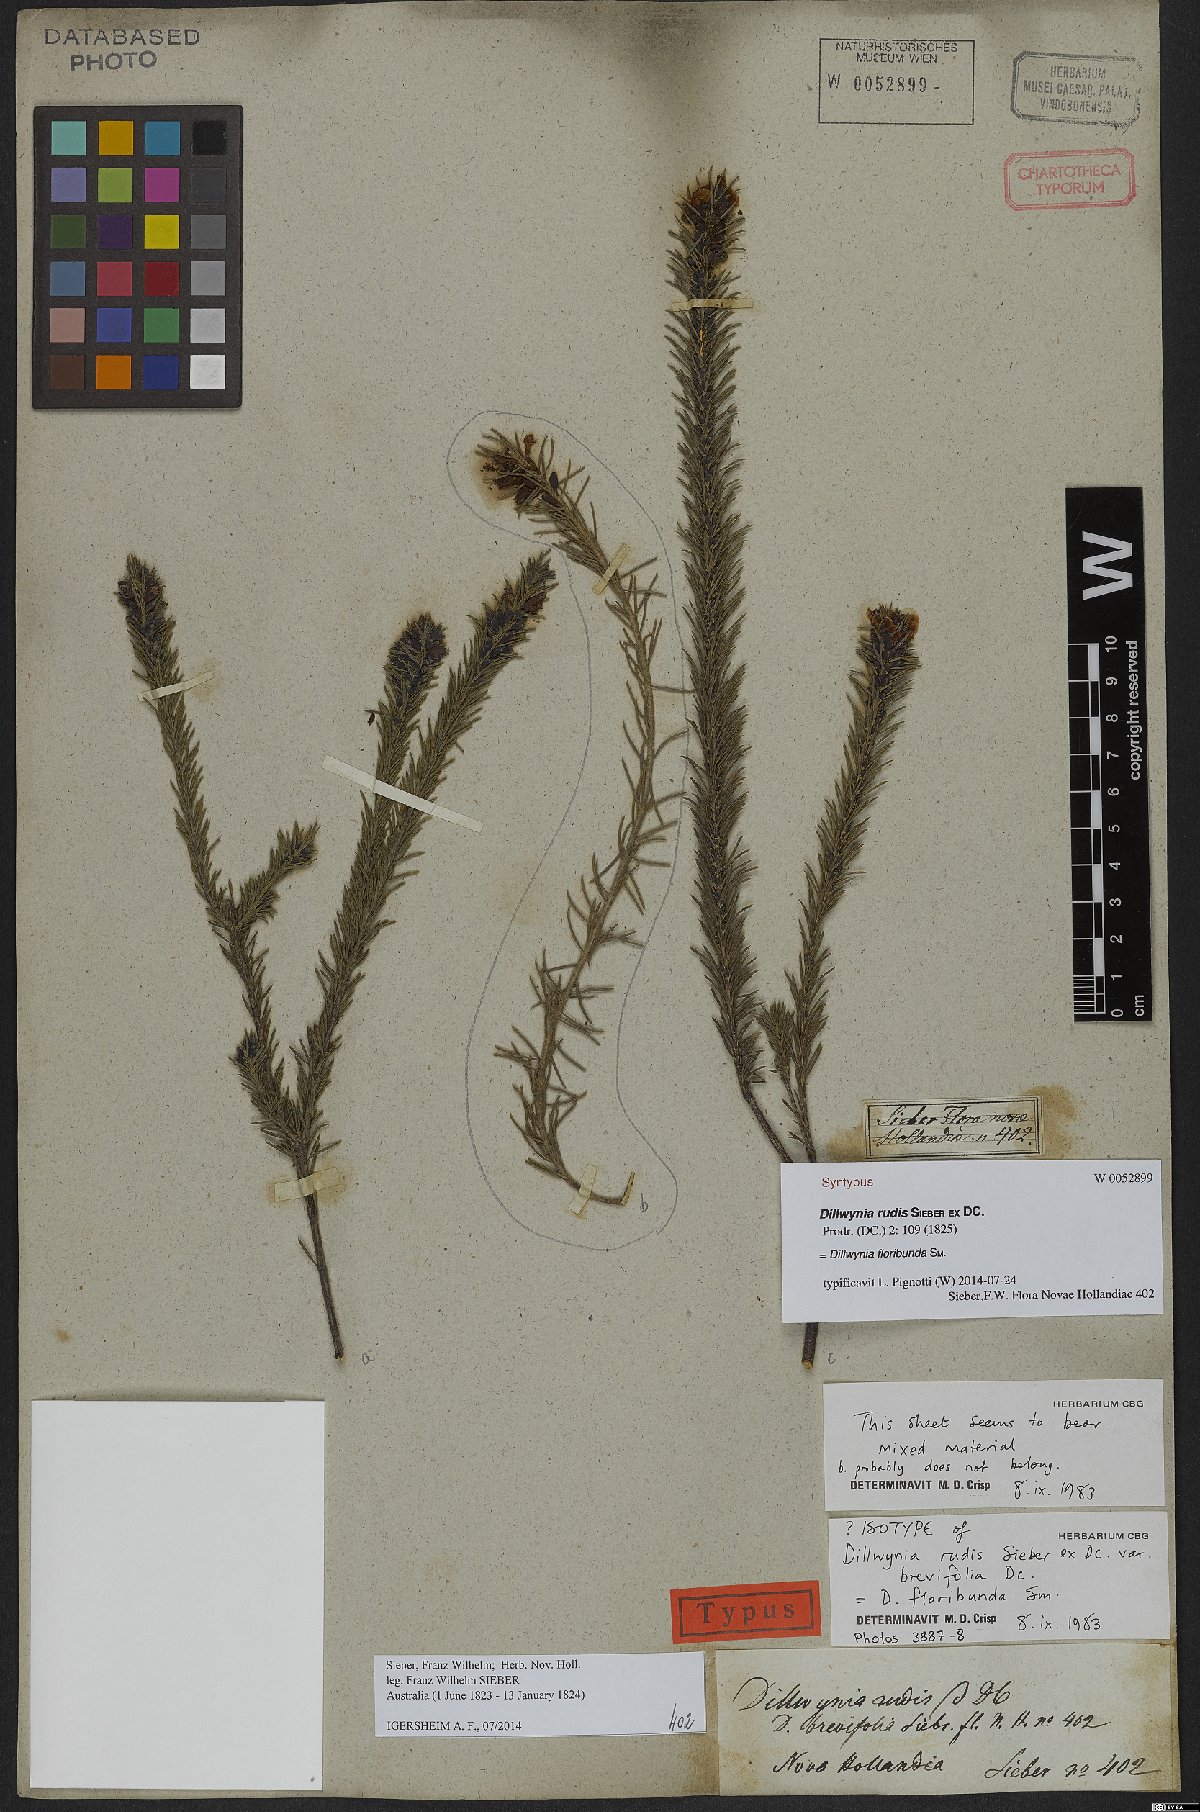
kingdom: Plantae
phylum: Tracheophyta
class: Magnoliopsida
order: Fabales
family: Fabaceae
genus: Dillwynia
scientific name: Dillwynia floribunda
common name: Eggs-and-bacon
